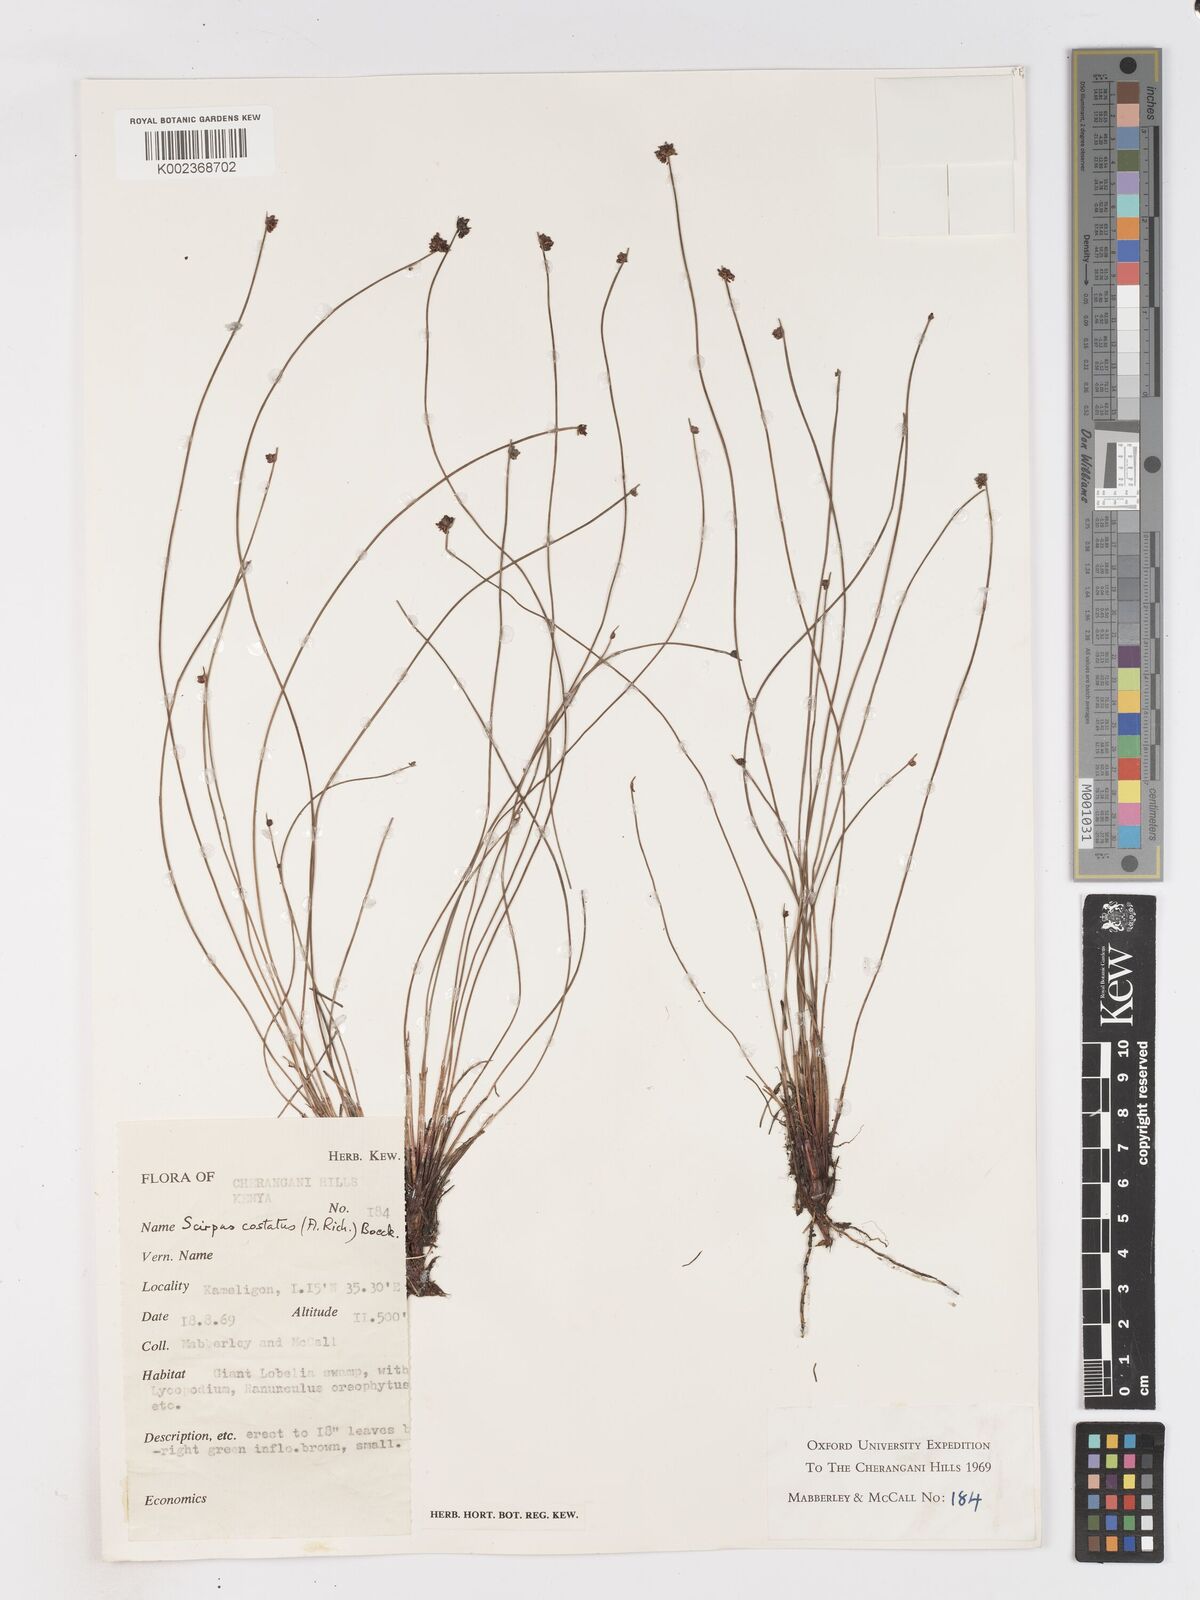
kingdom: Plantae
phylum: Tracheophyta
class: Liliopsida
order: Poales
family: Cyperaceae
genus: Isolepis
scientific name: Isolepis costata
